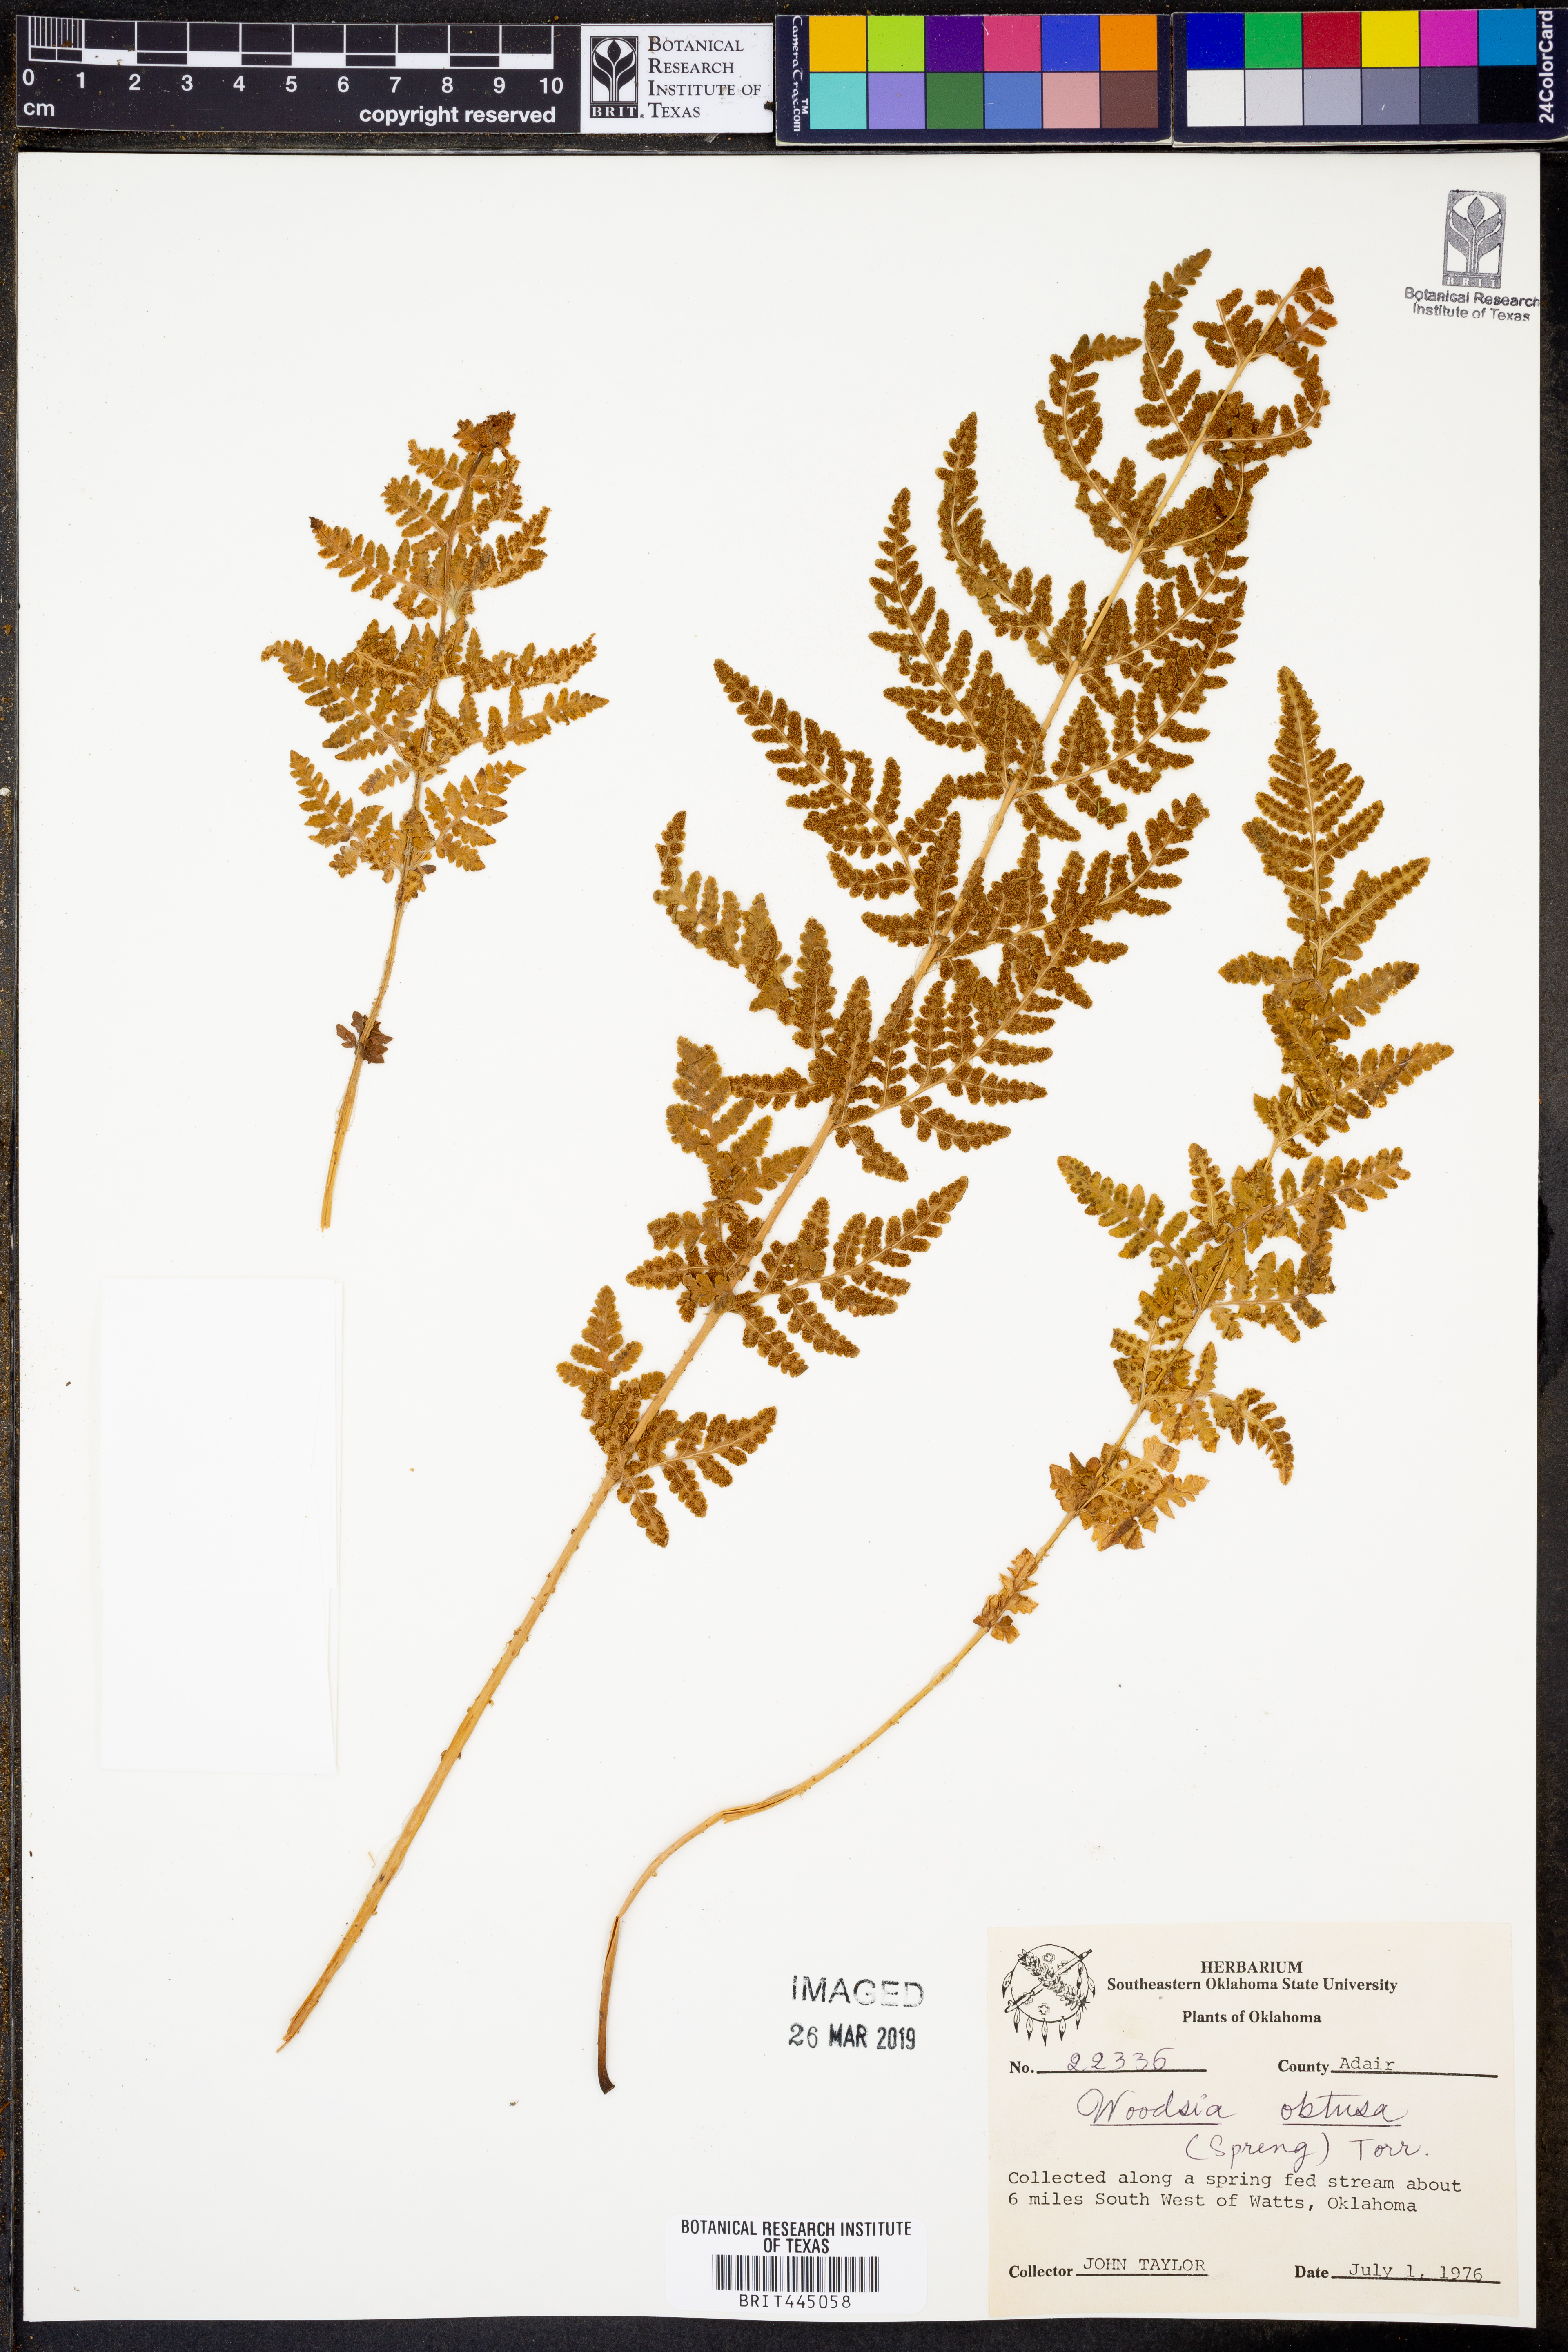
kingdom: Plantae
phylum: Tracheophyta
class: Polypodiopsida
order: Polypodiales
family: Woodsiaceae
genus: Physematium
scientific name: Physematium obtusum
